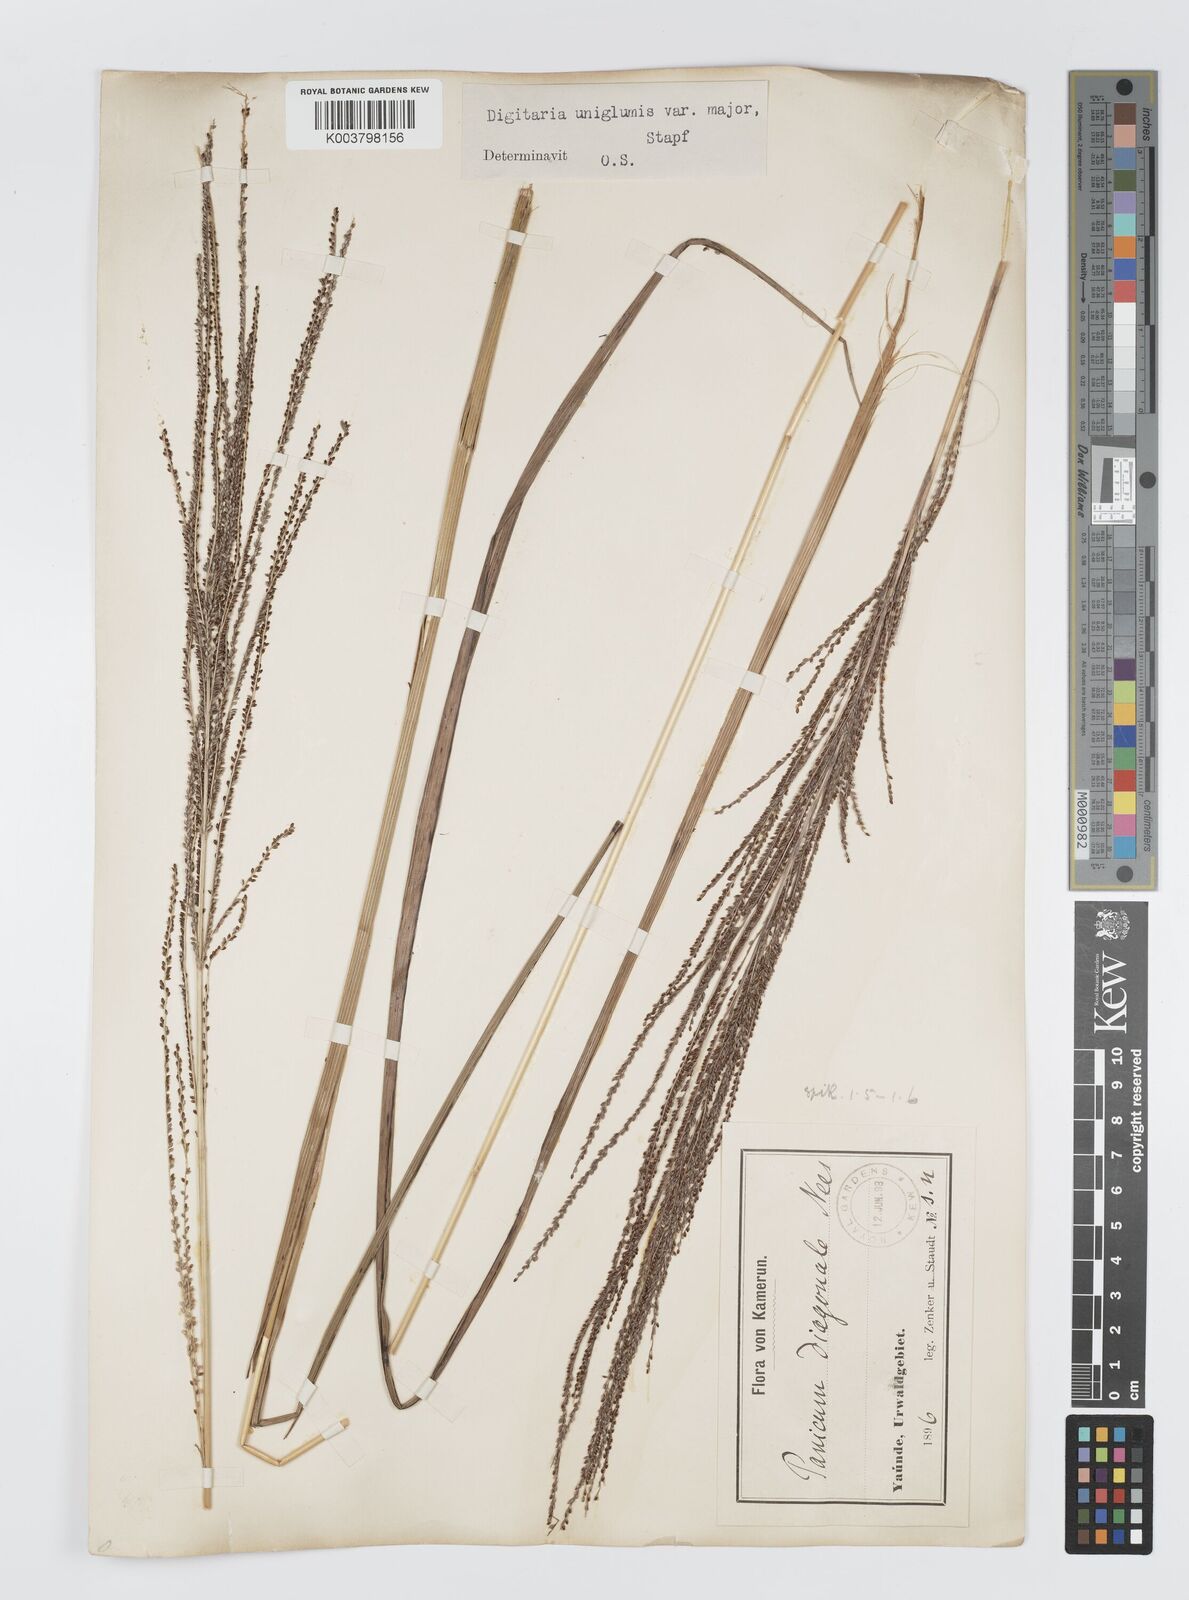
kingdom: Plantae
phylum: Tracheophyta
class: Liliopsida
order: Poales
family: Poaceae
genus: Digitaria
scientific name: Digitaria diagonalis
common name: Brown-seed finger grass
